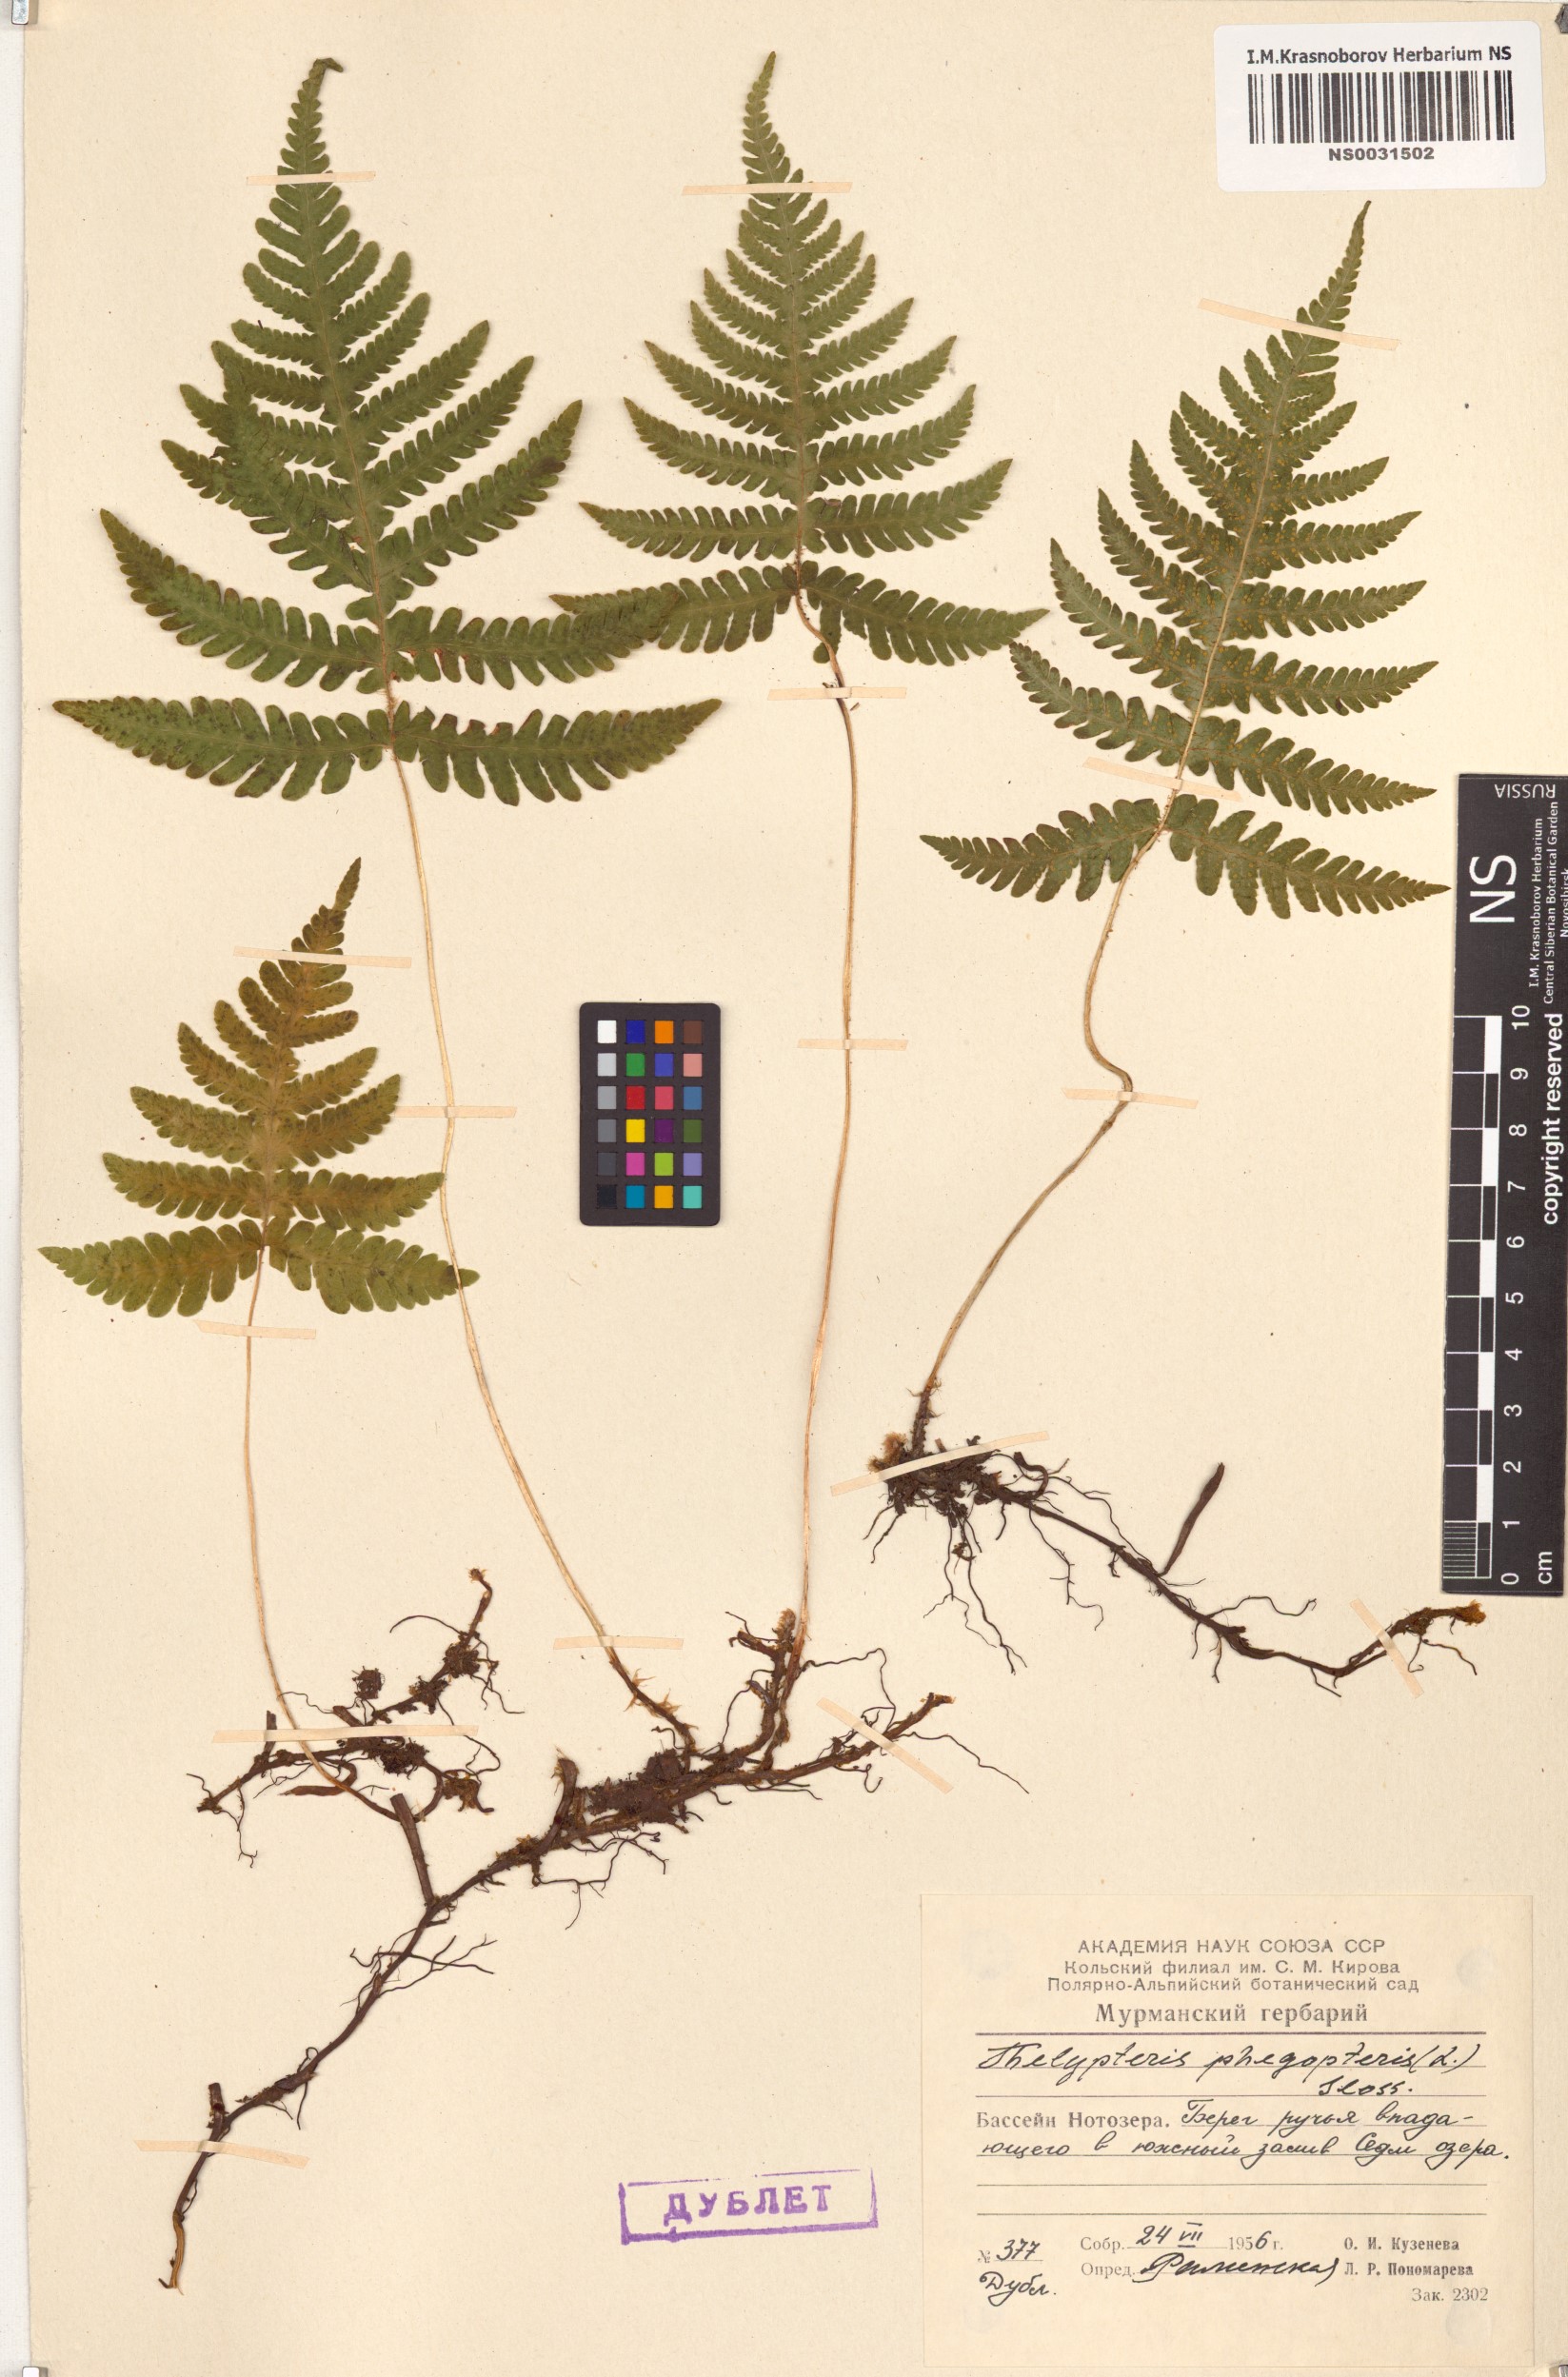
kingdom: Plantae
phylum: Tracheophyta
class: Polypodiopsida
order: Polypodiales
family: Thelypteridaceae
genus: Phegopteris
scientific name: Phegopteris connectilis
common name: Beech fern
